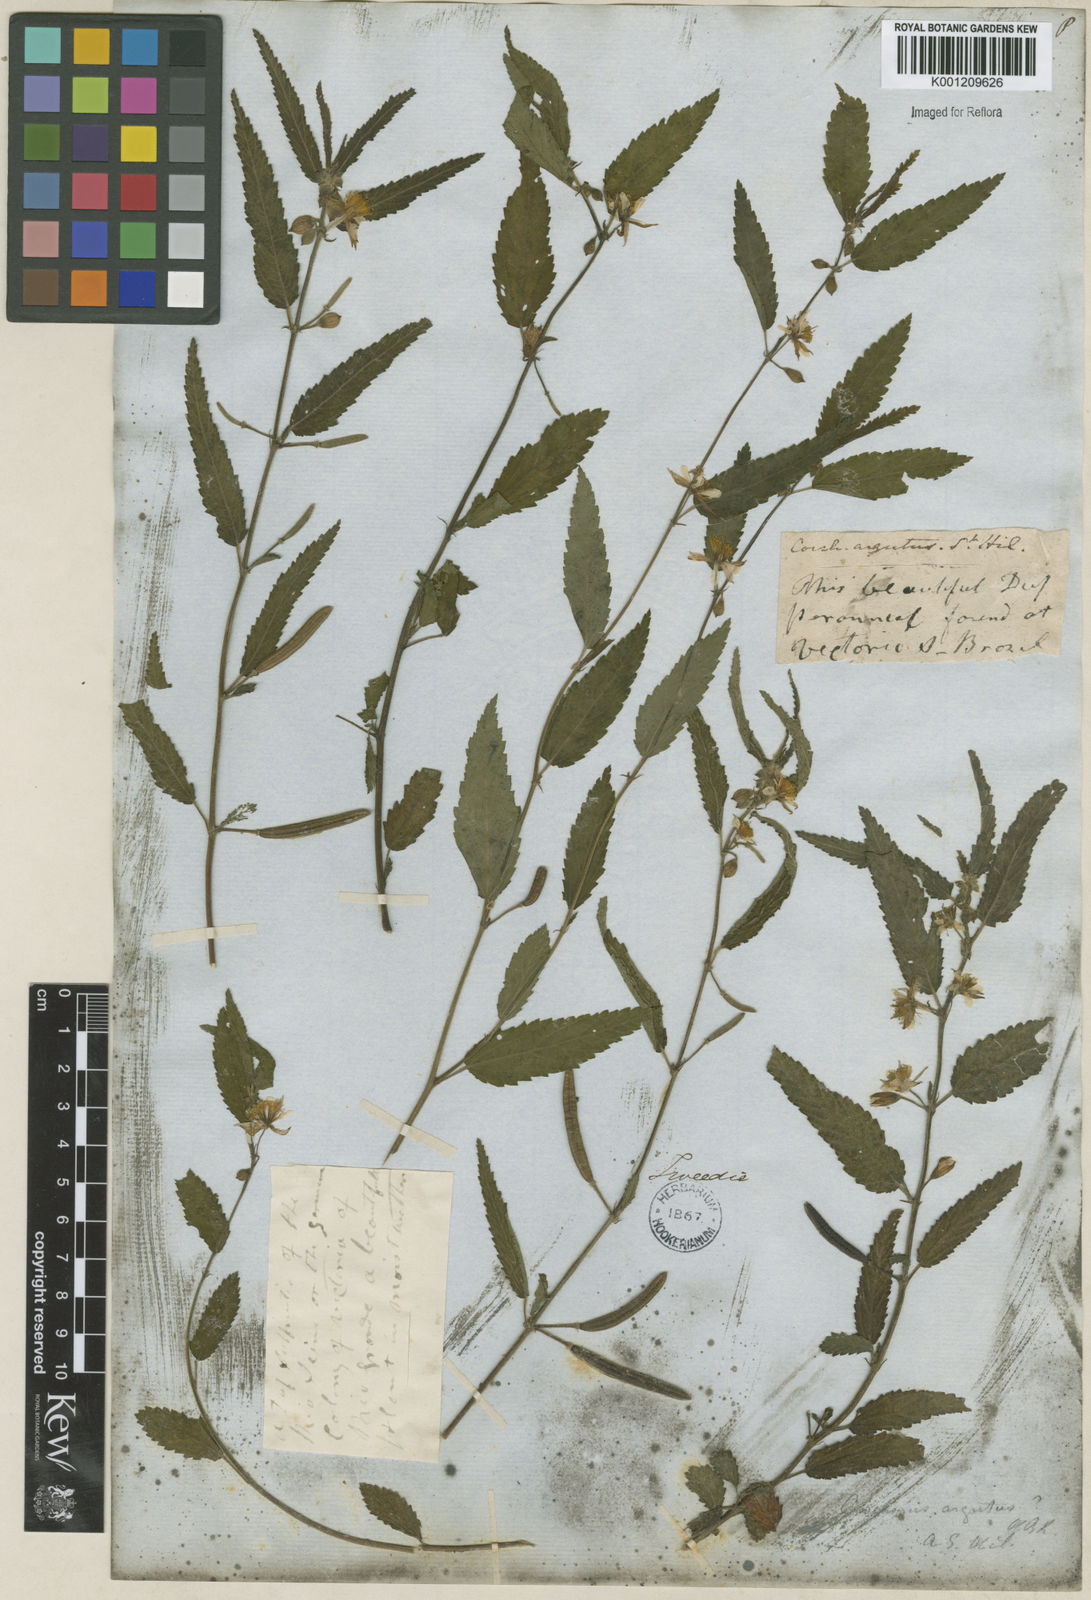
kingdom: Plantae
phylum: Tracheophyta
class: Magnoliopsida
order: Malvales
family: Malvaceae
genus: Corchorus
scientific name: Corchorus argutus
